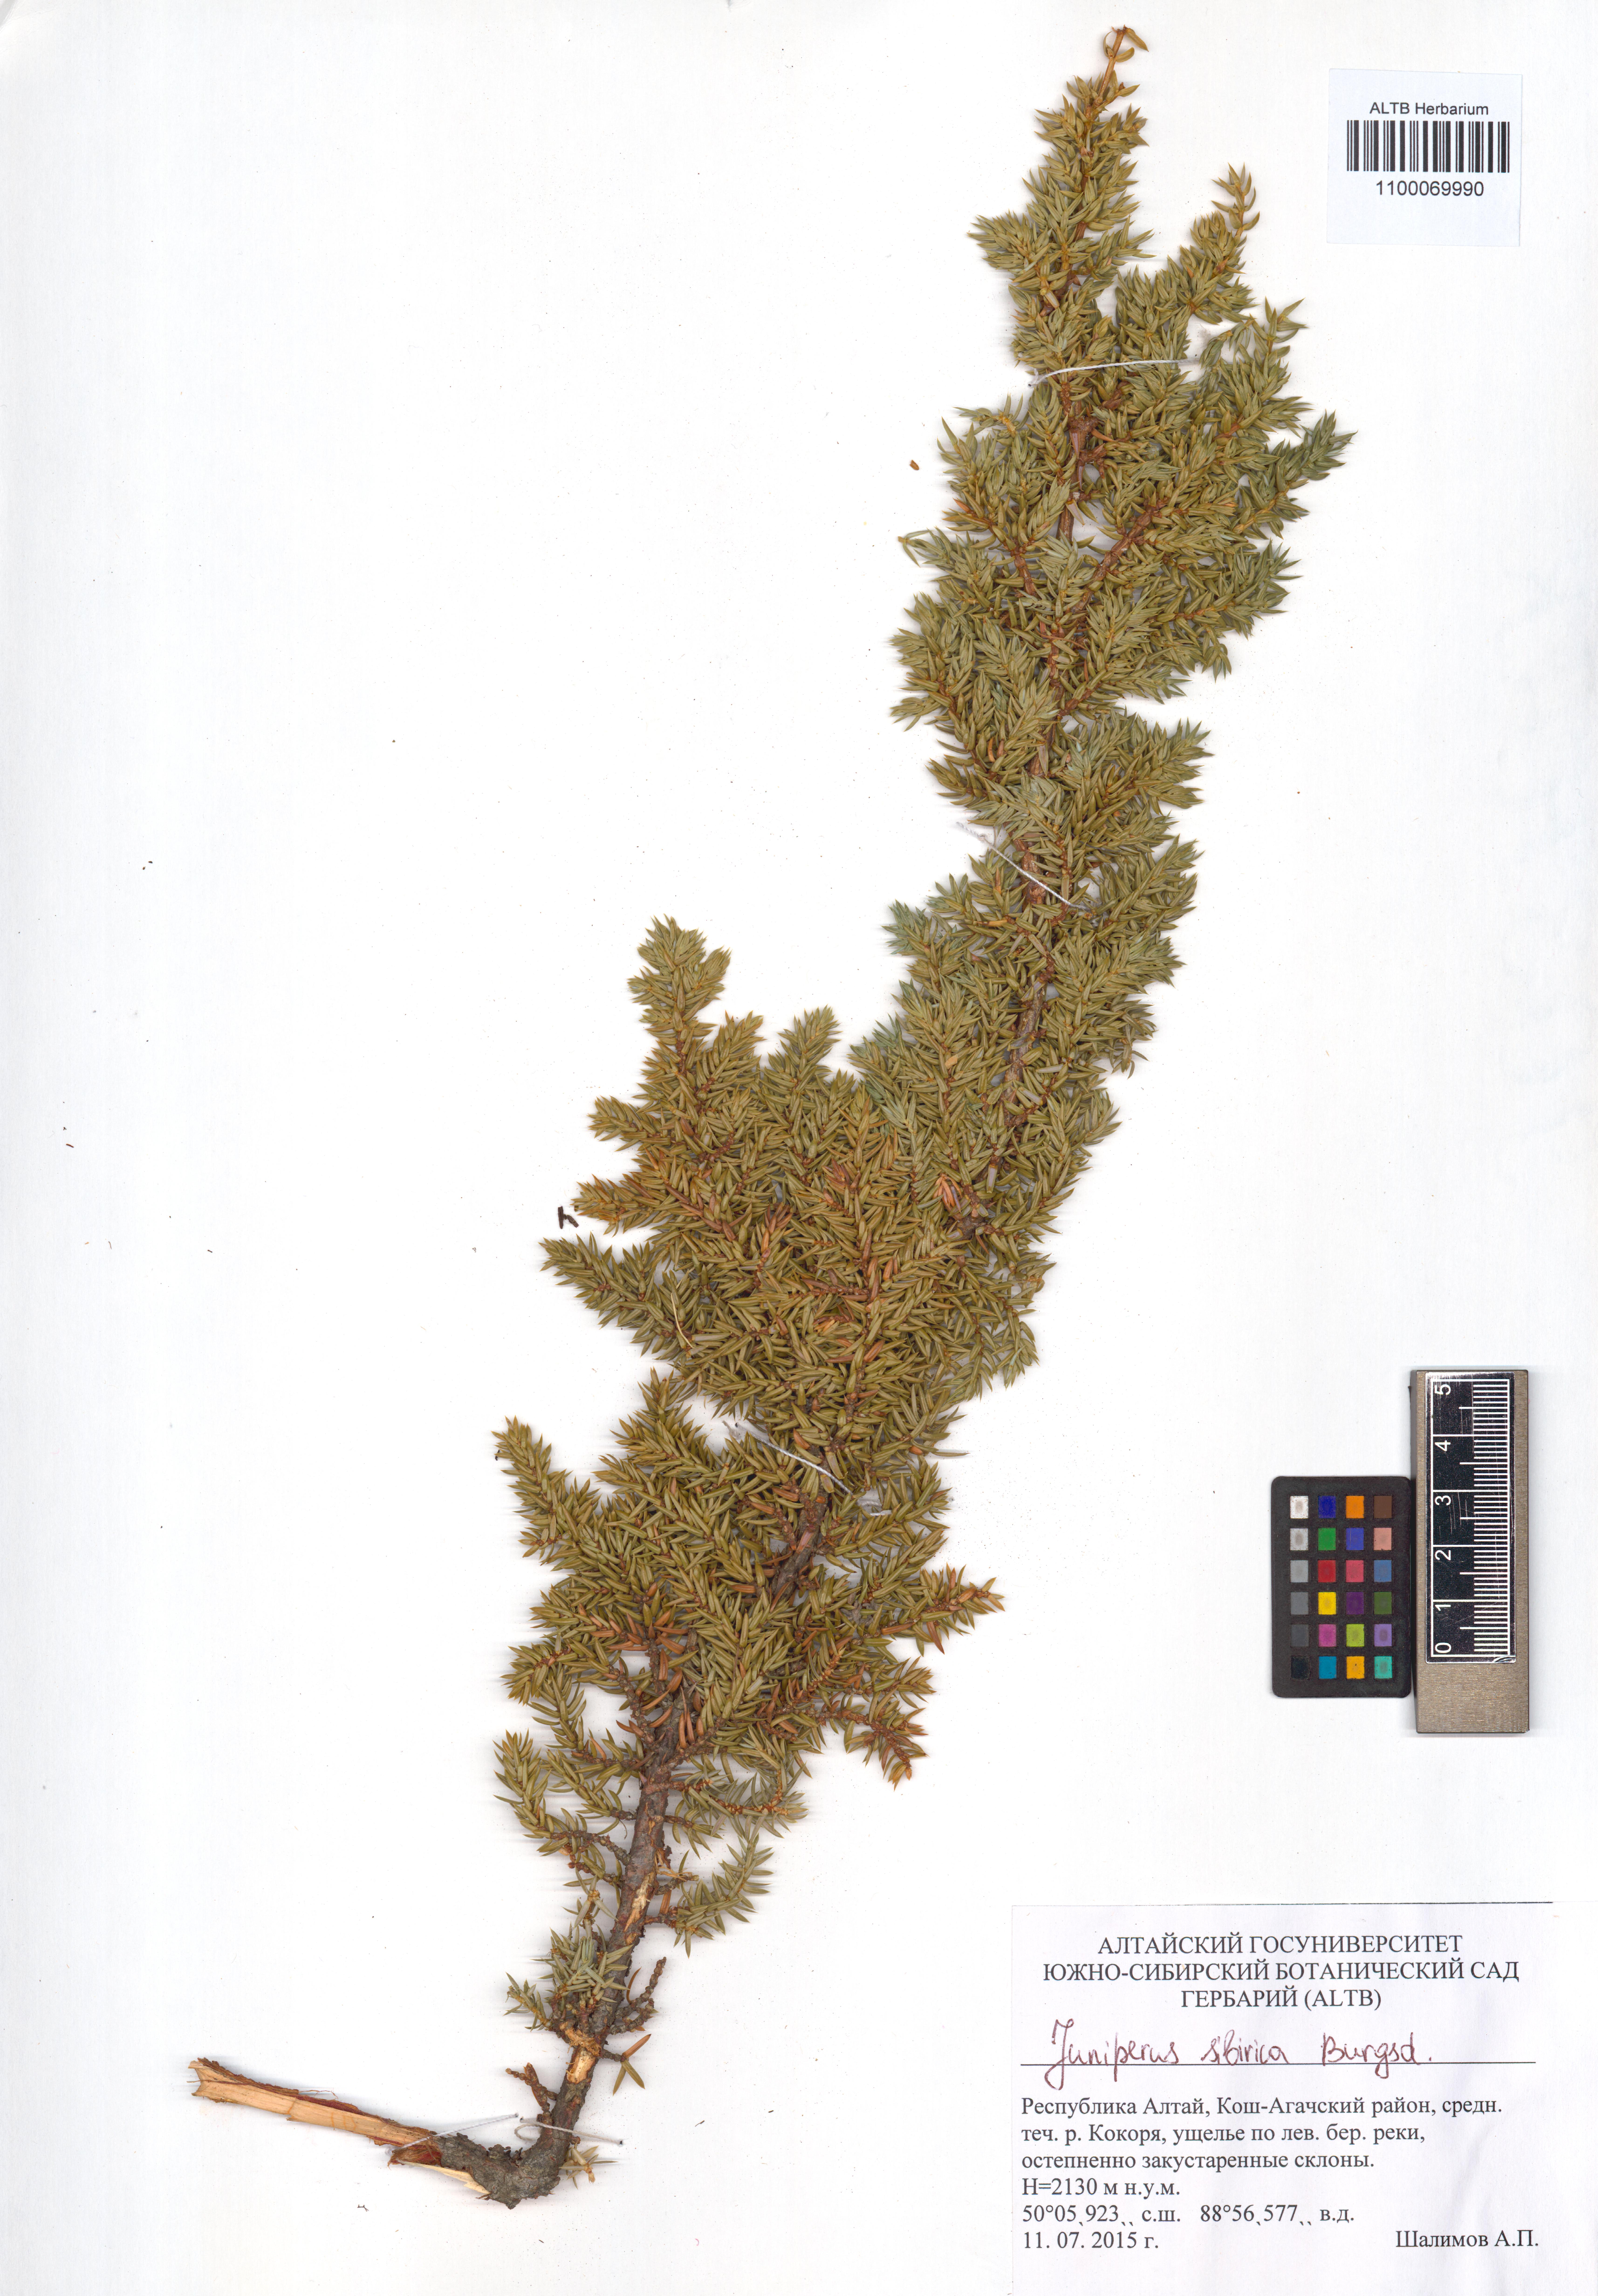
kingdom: Plantae
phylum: Tracheophyta
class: Pinopsida
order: Pinales
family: Cupressaceae
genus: Juniperus
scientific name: Juniperus communis
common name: Common juniper
